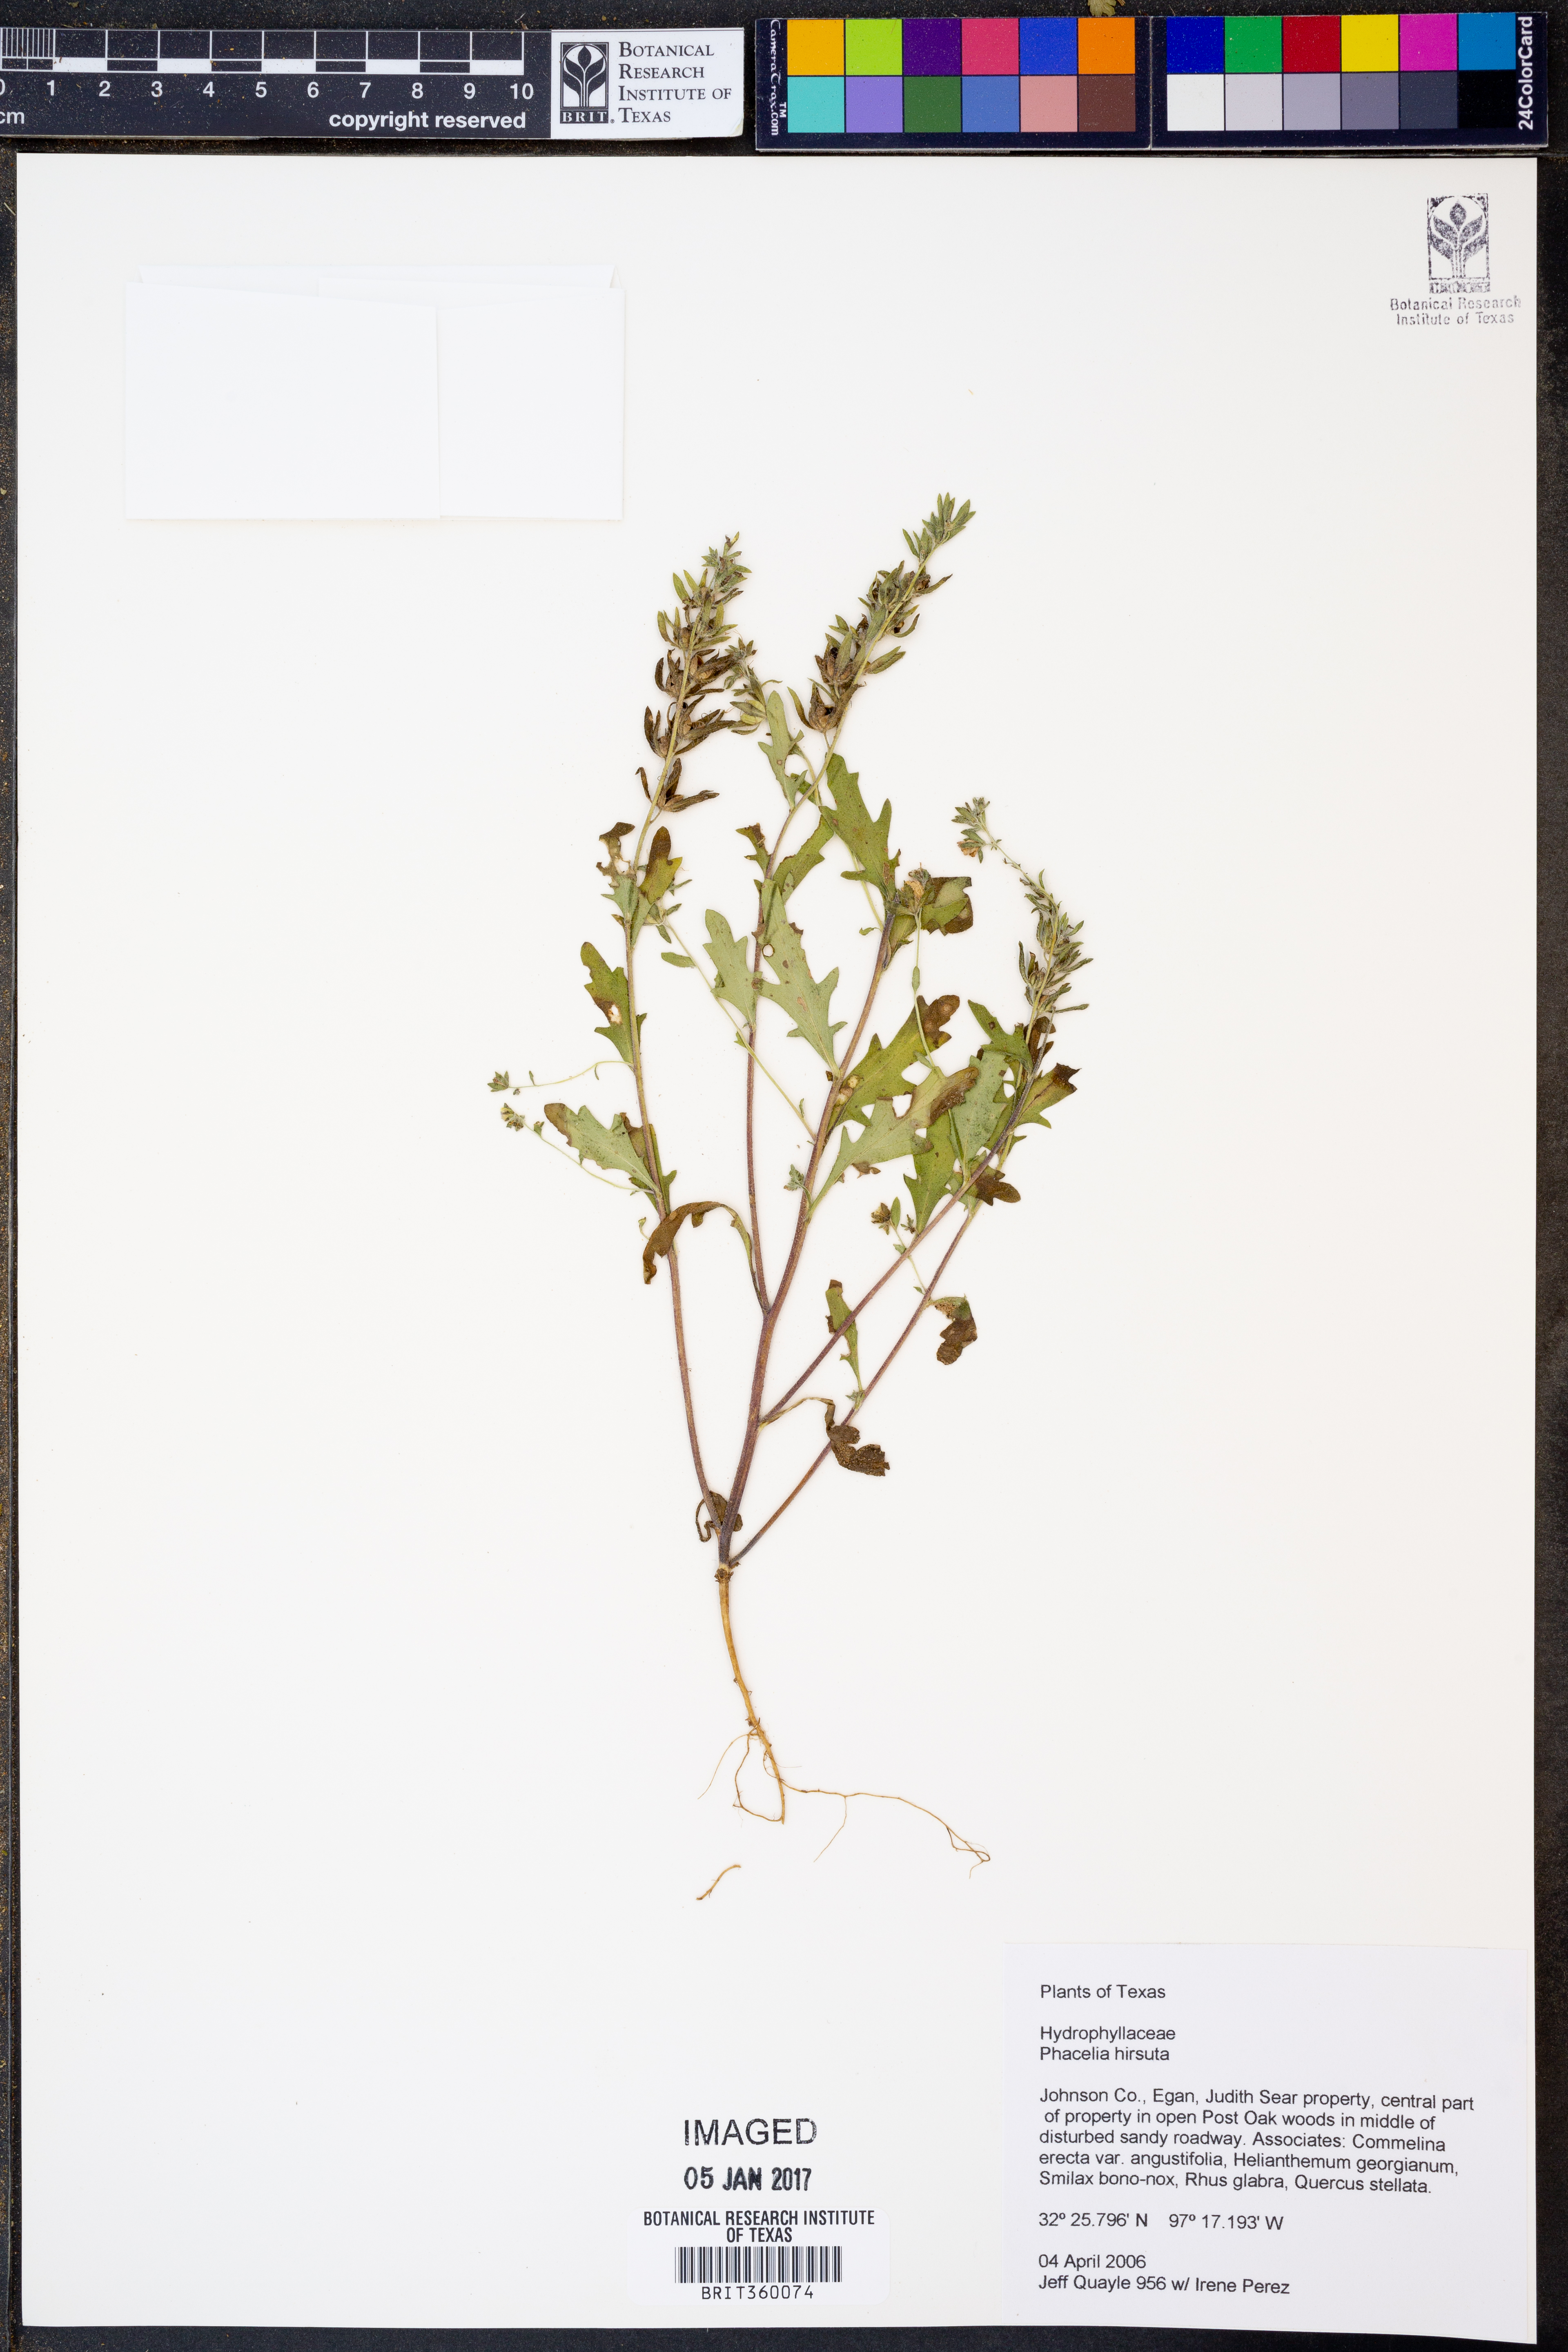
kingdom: Plantae
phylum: Tracheophyta
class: Magnoliopsida
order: Boraginales
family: Hydrophyllaceae
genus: Phacelia
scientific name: Phacelia hirsuta
